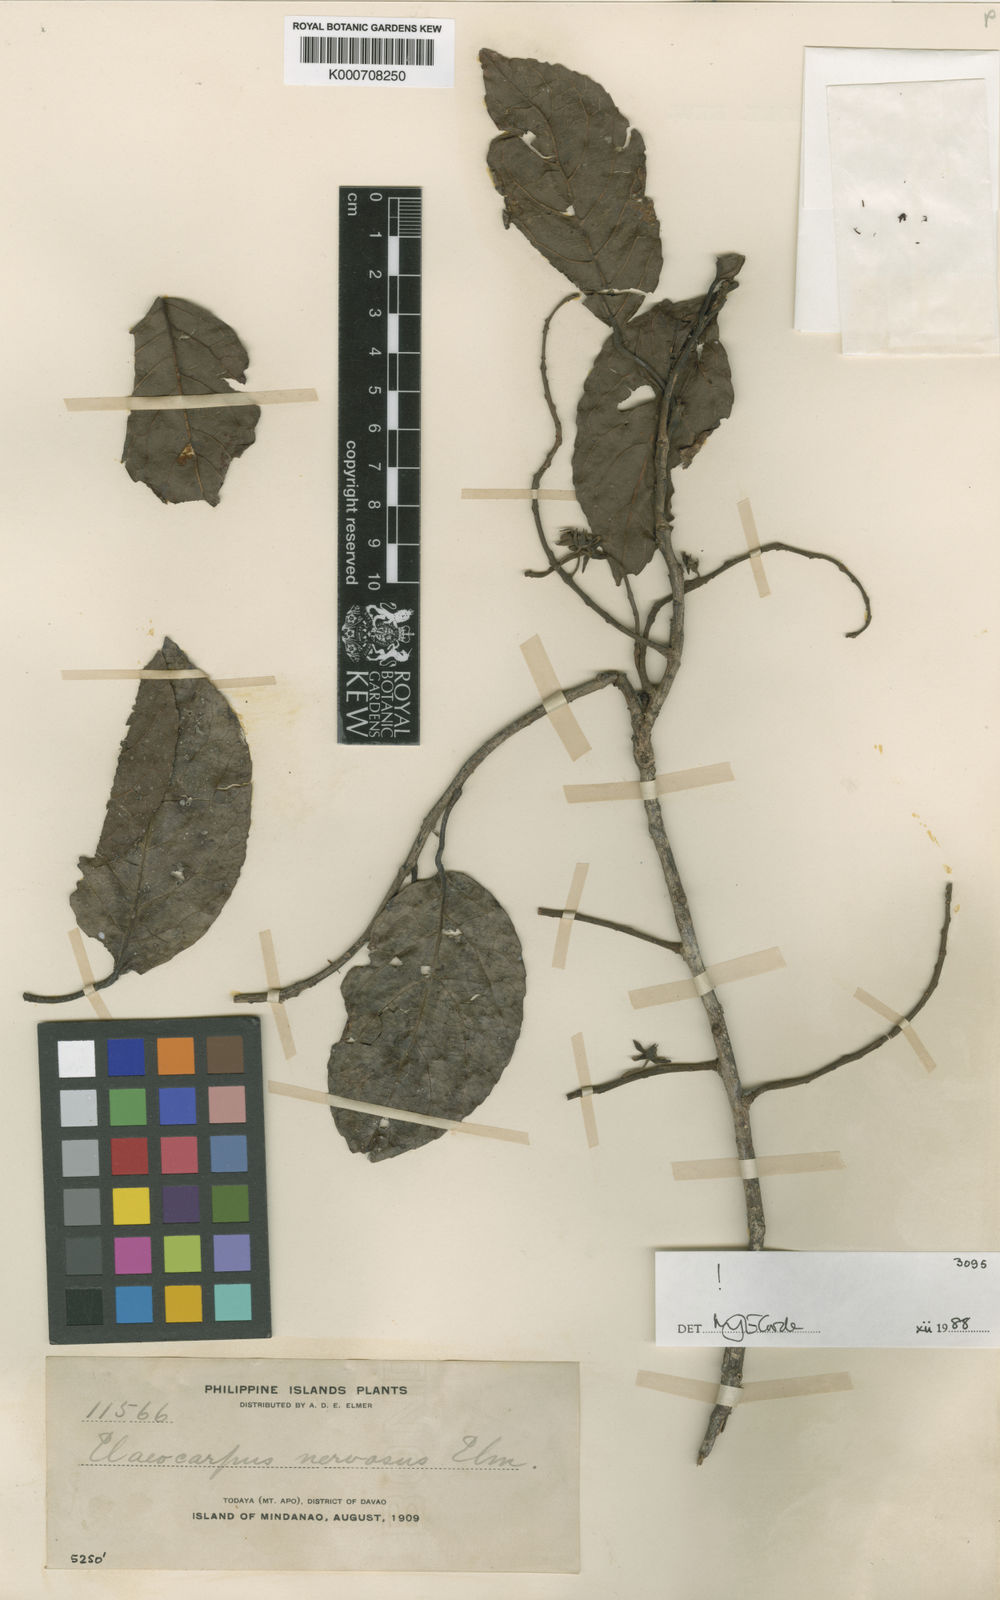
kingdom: Plantae
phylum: Tracheophyta
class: Magnoliopsida
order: Oxalidales
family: Elaeocarpaceae
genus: Elaeocarpus
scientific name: Elaeocarpus nervosus
